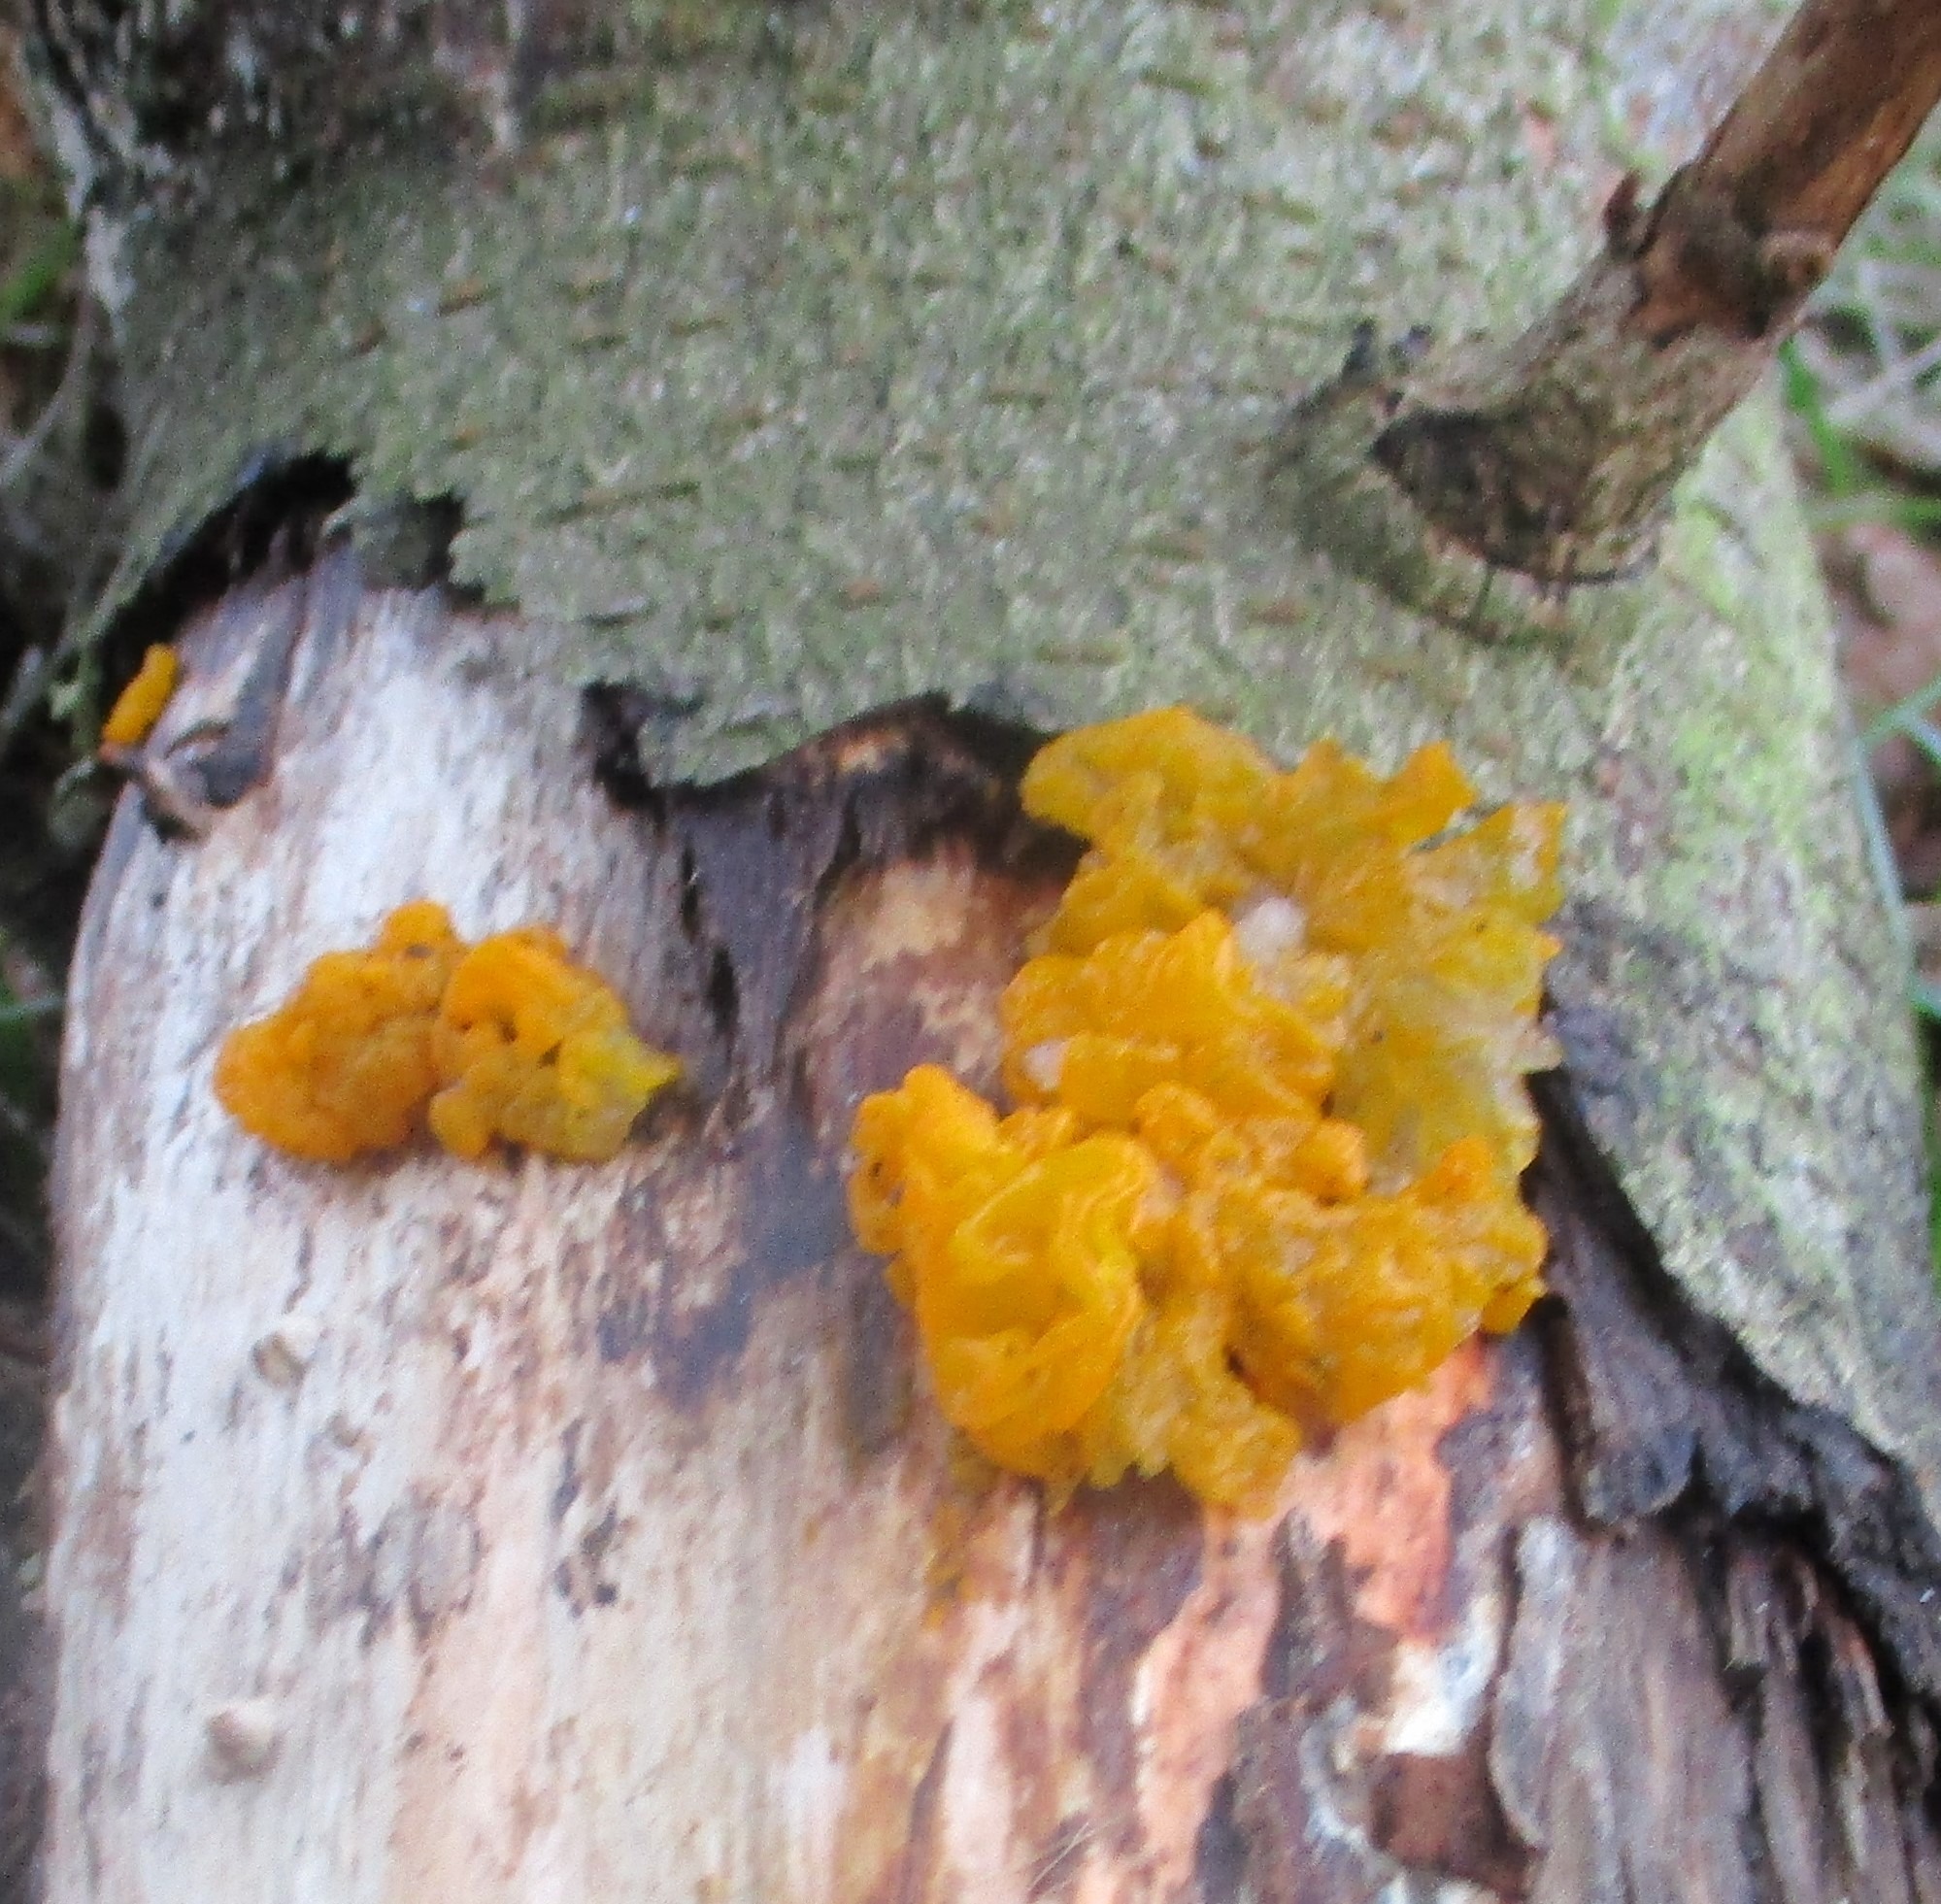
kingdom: Fungi
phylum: Basidiomycota
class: Tremellomycetes
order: Tremellales
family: Tremellaceae
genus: Tremella
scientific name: Tremella mesenterica
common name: Gul bævresvamp
